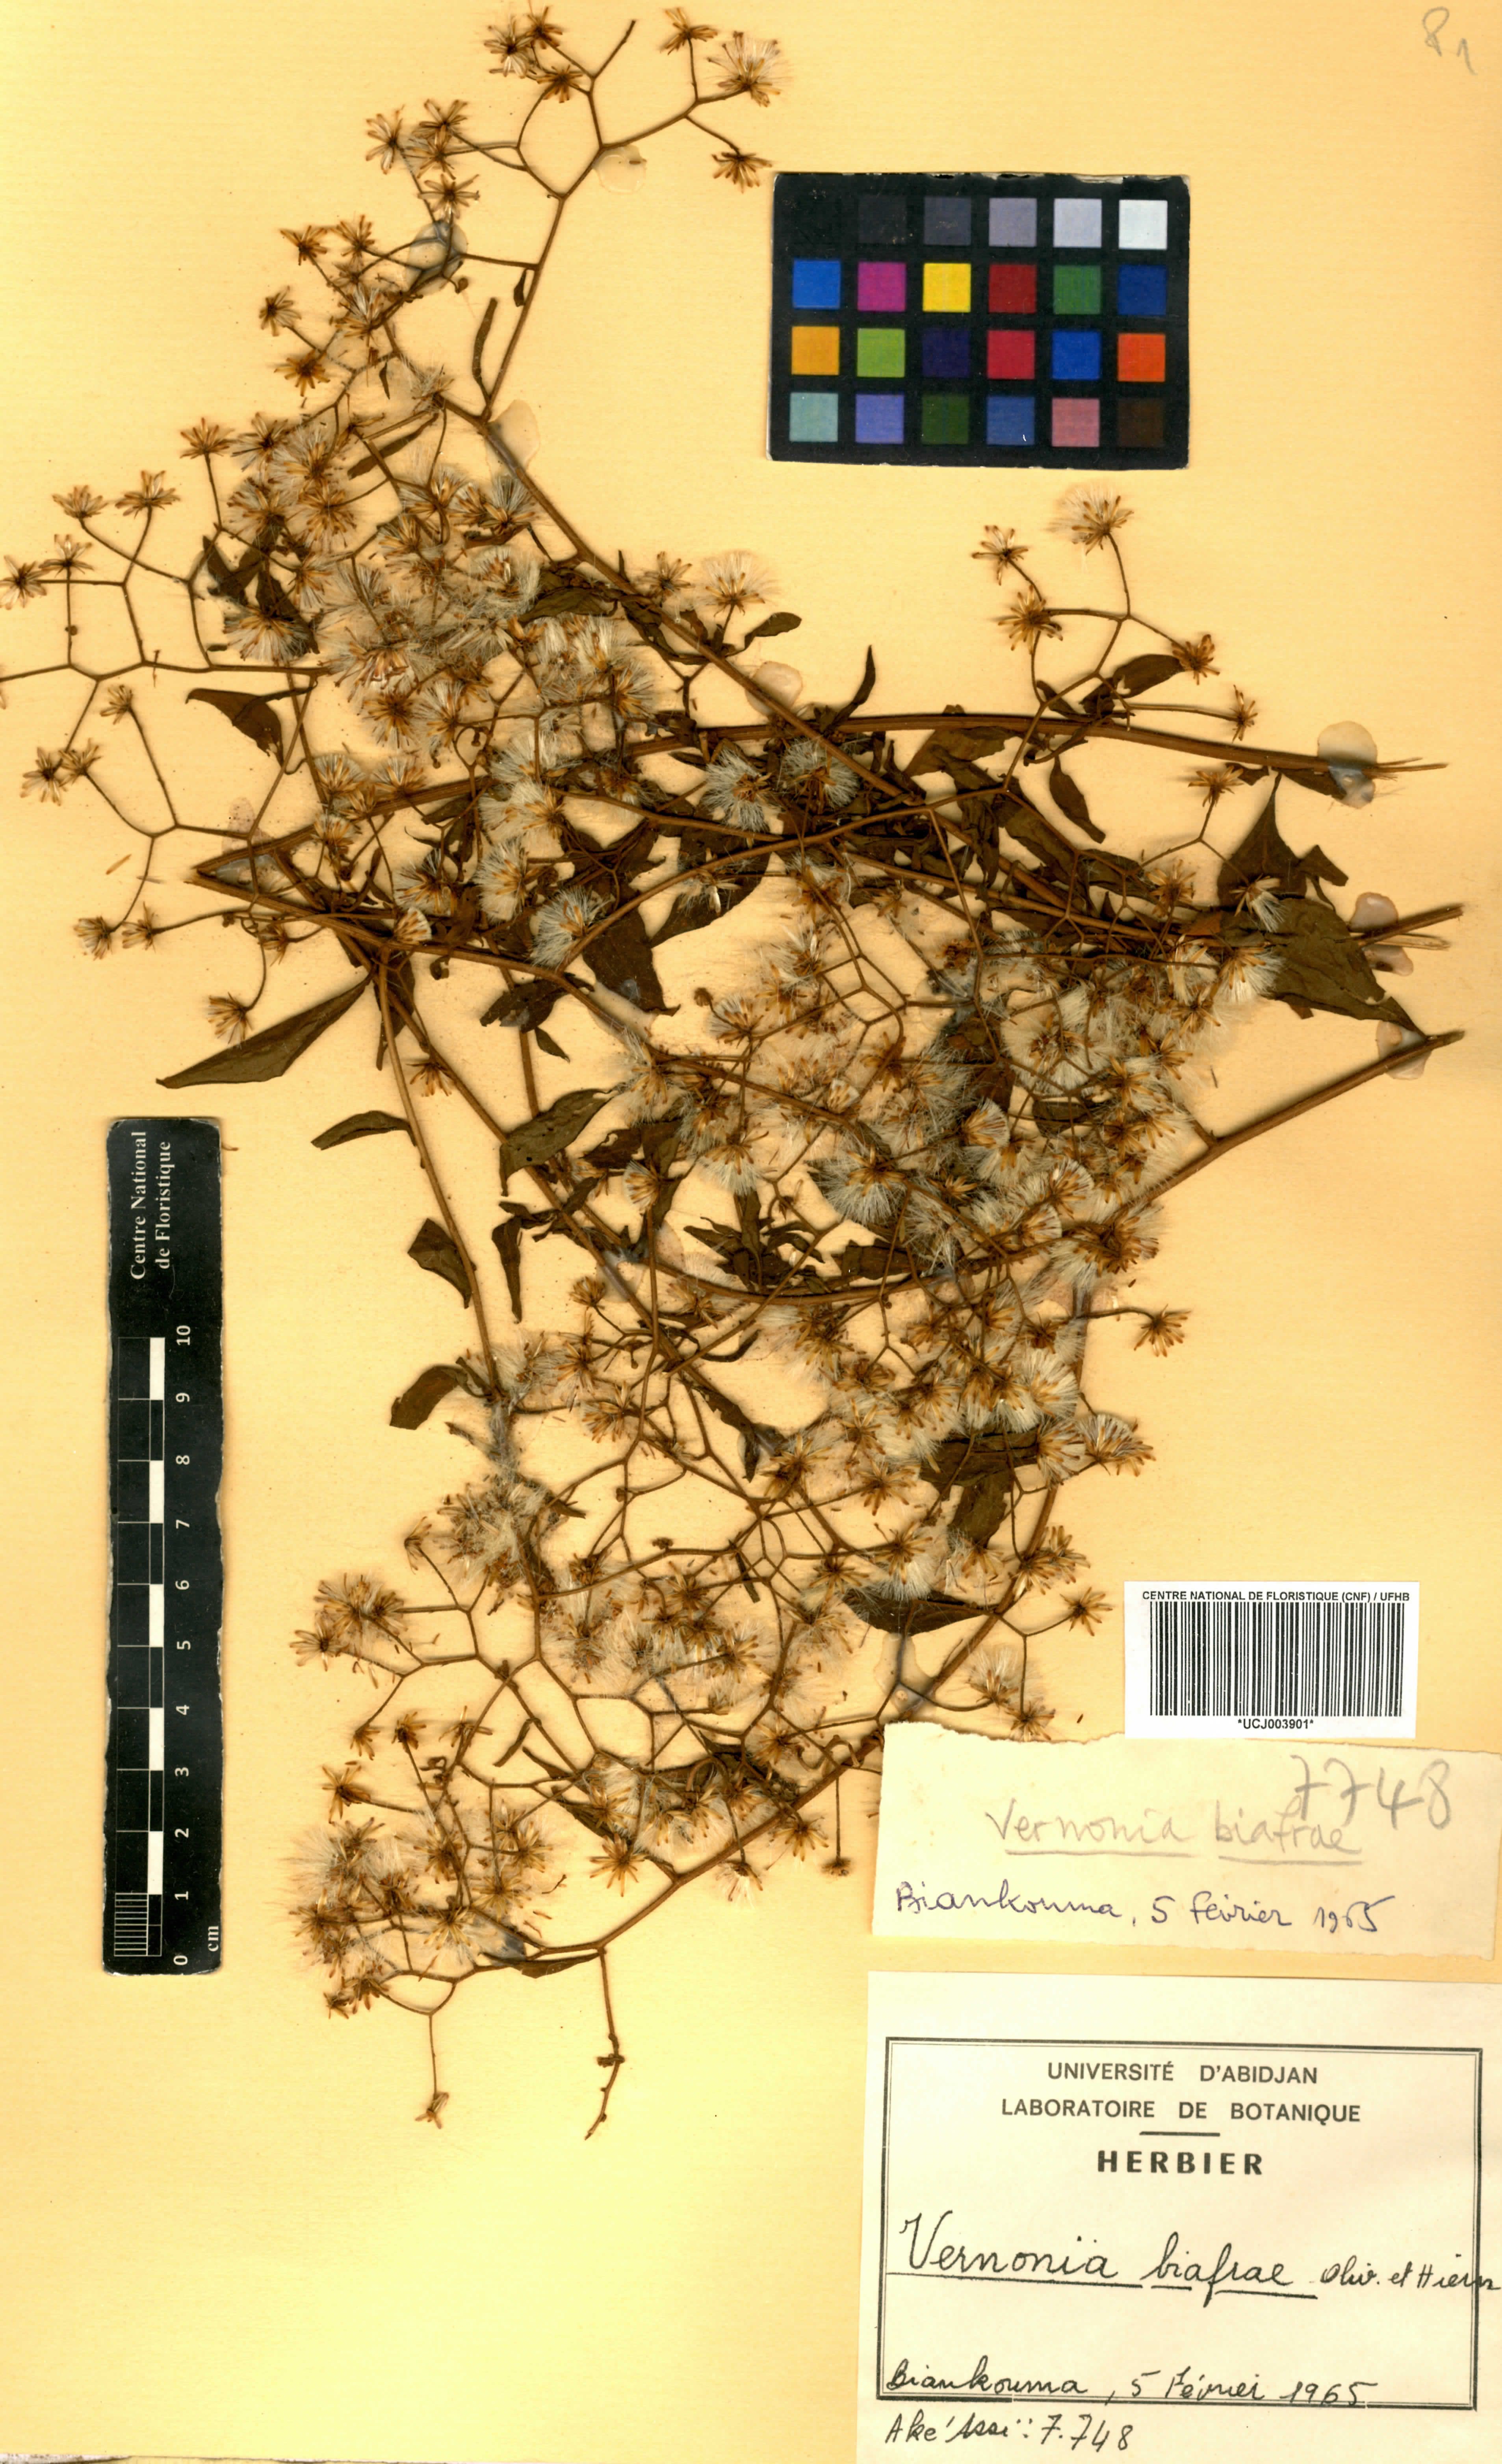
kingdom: Plantae
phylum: Tracheophyta
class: Magnoliopsida
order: Asterales
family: Asteraceae
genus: Distephanus
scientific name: Distephanus biafrae
